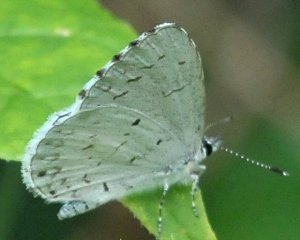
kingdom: Animalia
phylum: Arthropoda
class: Insecta
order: Lepidoptera
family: Lycaenidae
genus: Celastrina
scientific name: Celastrina
